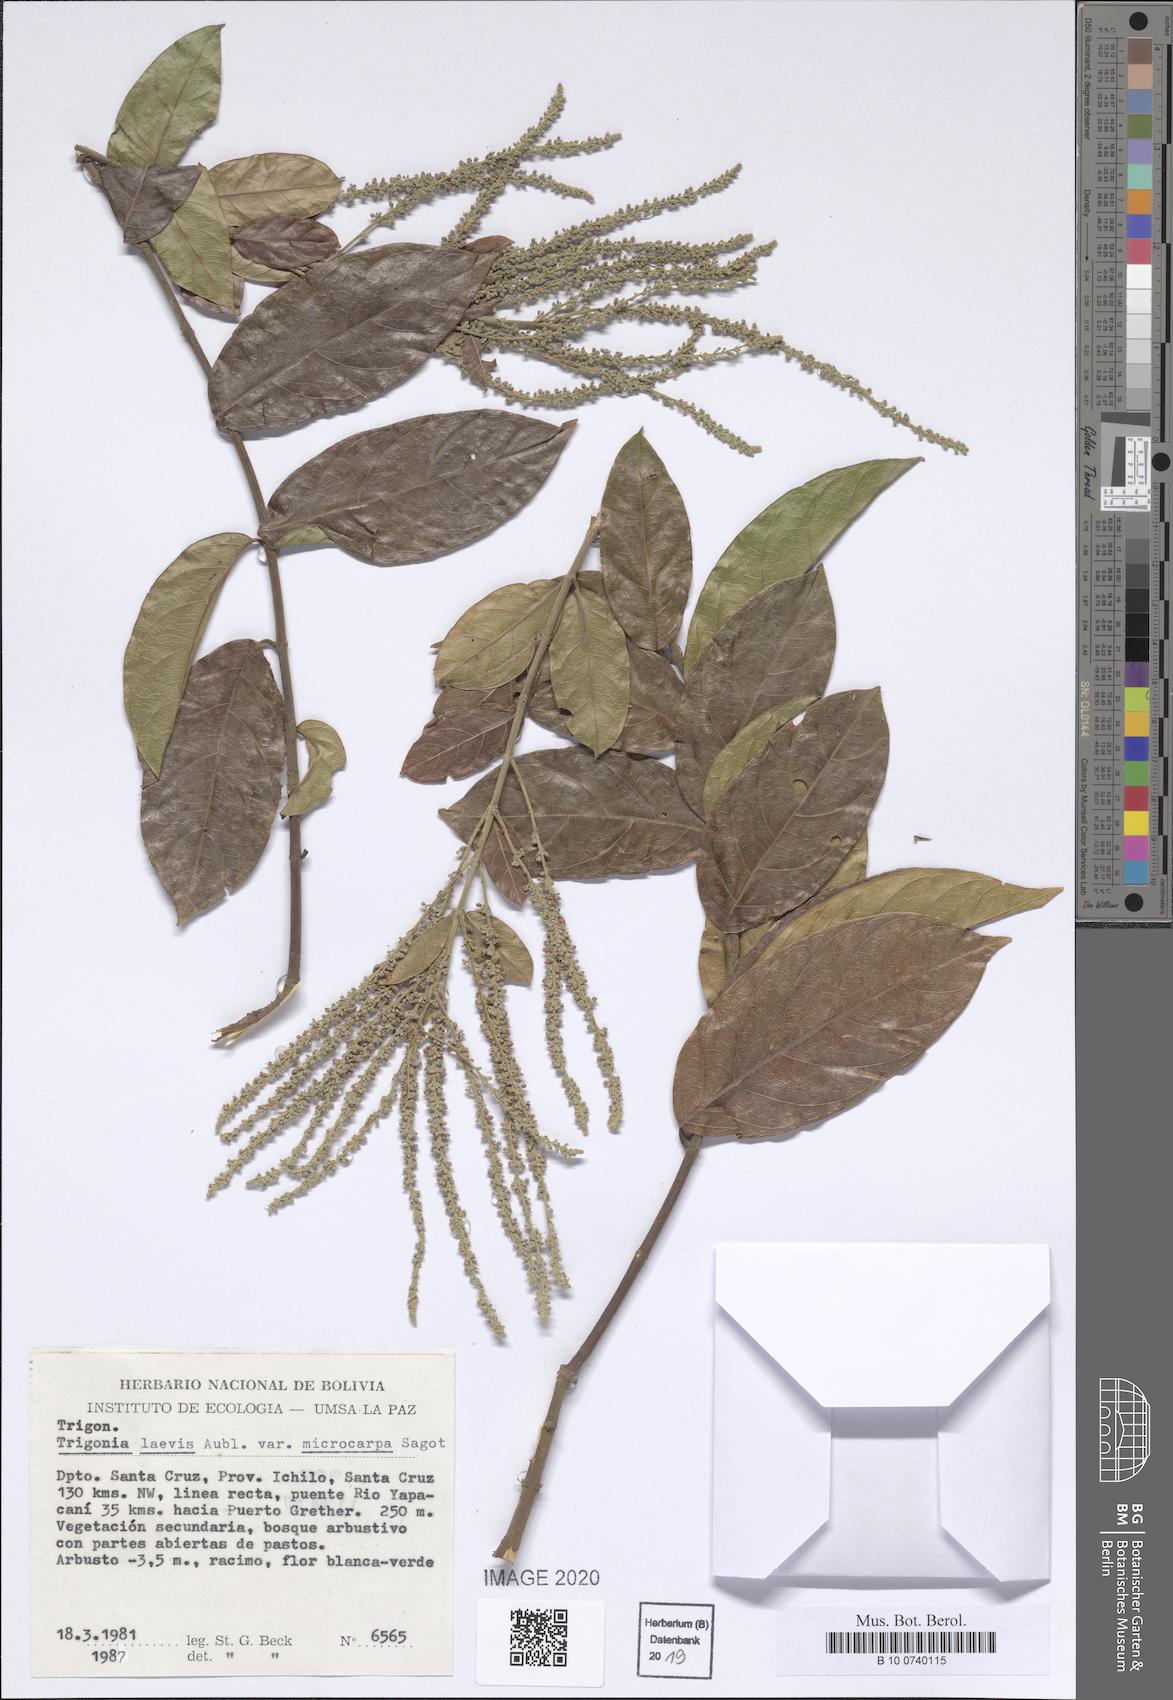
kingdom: Plantae
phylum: Tracheophyta
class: Magnoliopsida
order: Malpighiales
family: Trigoniaceae
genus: Trigonia
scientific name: Trigonia microcarpa
